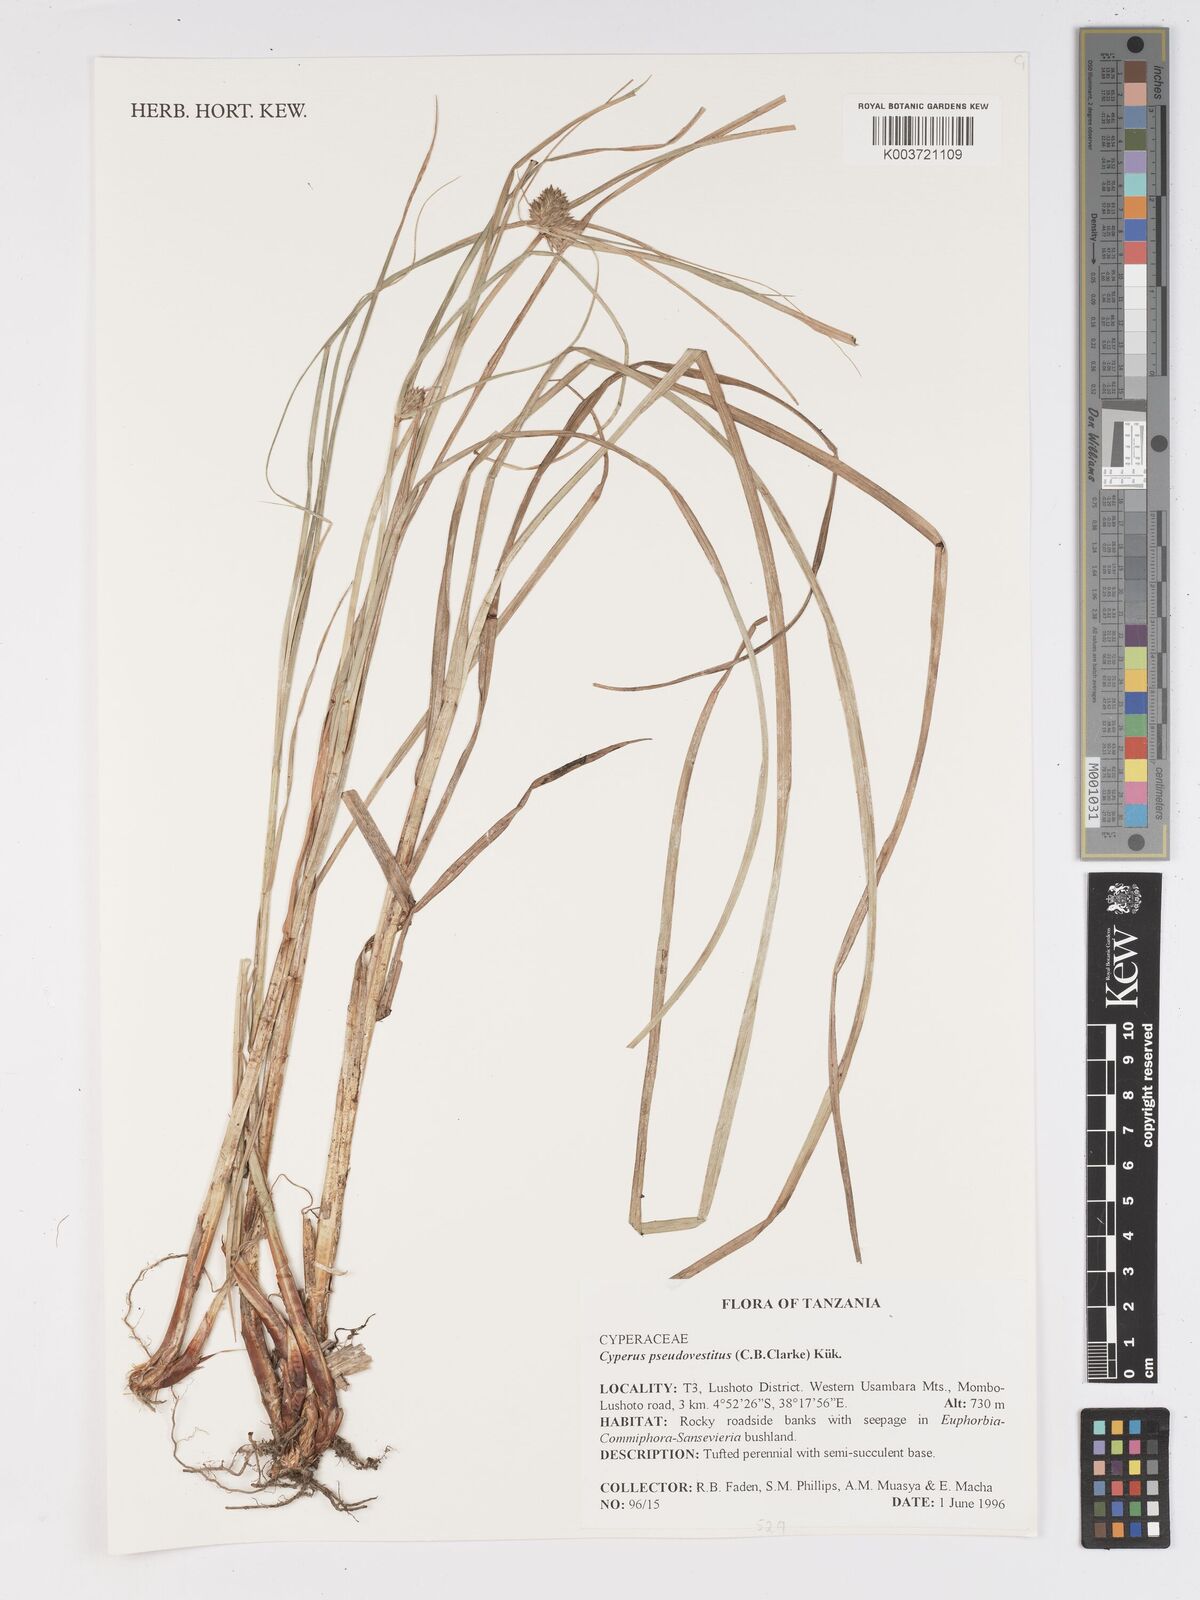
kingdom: Plantae
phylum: Tracheophyta
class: Liliopsida
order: Poales
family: Cyperaceae
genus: Cyperus
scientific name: Cyperus vestitus
